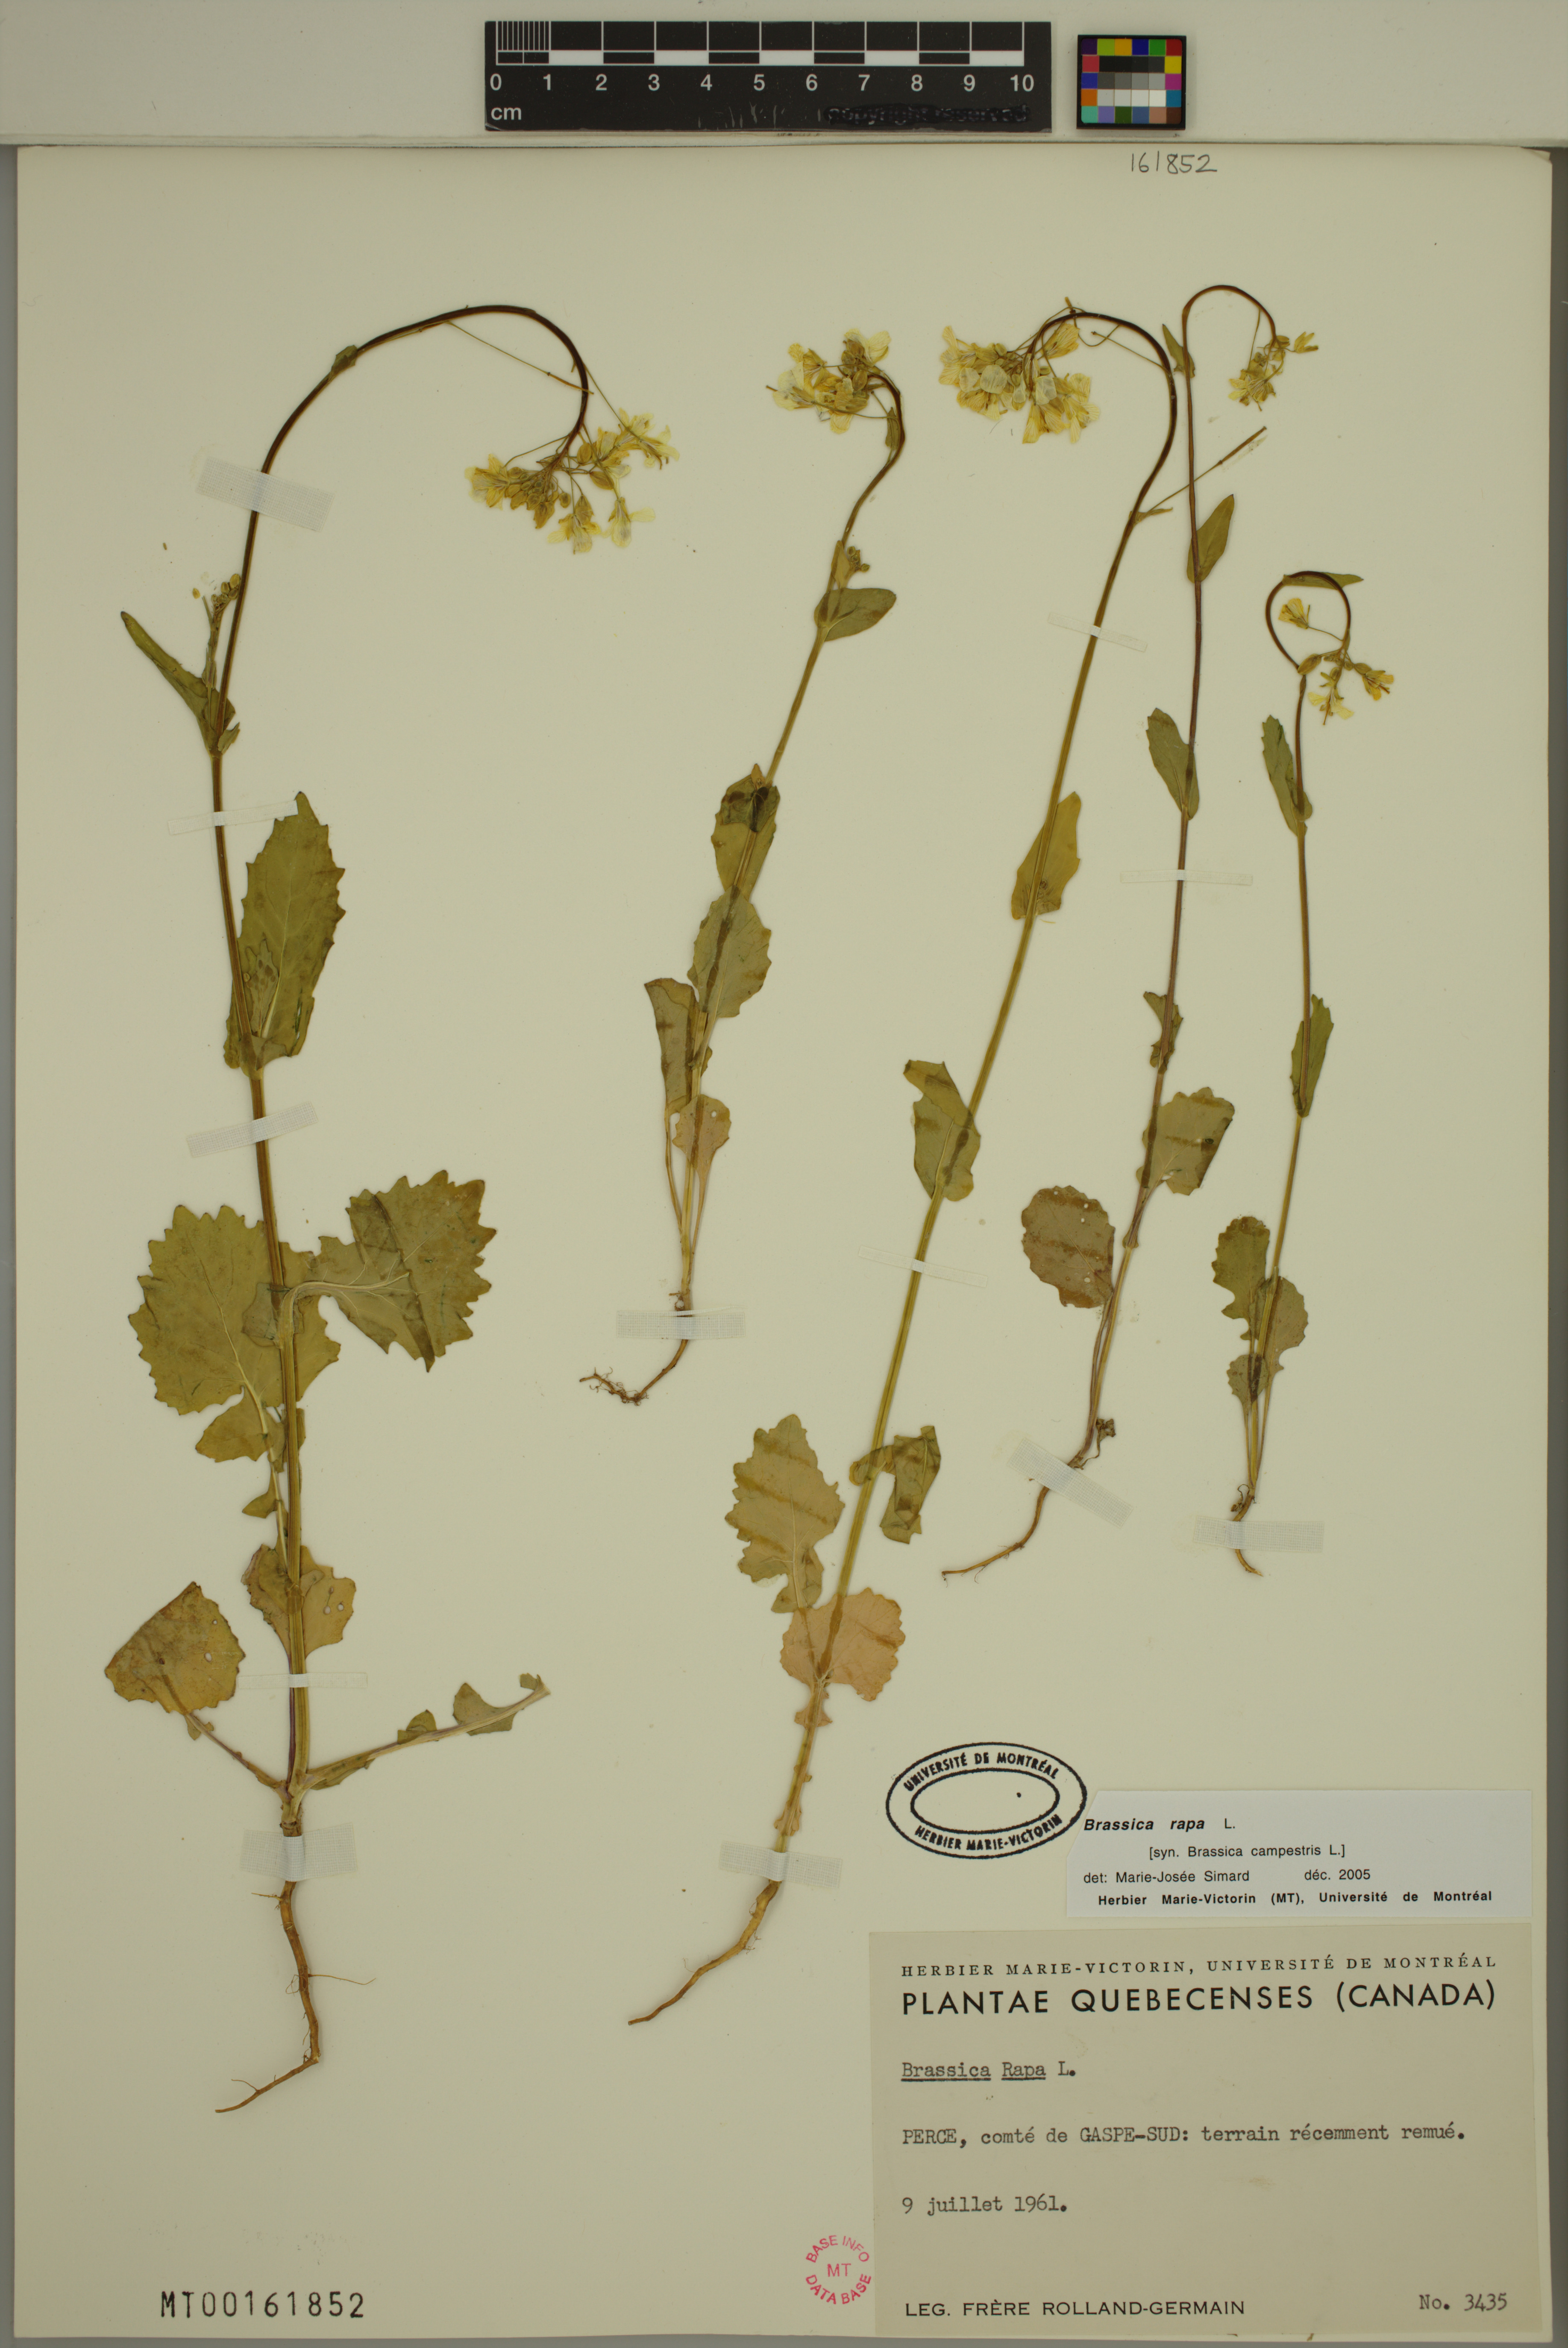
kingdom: Plantae
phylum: Tracheophyta
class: Magnoliopsida
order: Brassicales
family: Brassicaceae
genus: Brassica
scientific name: Brassica rapa
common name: Field mustard
